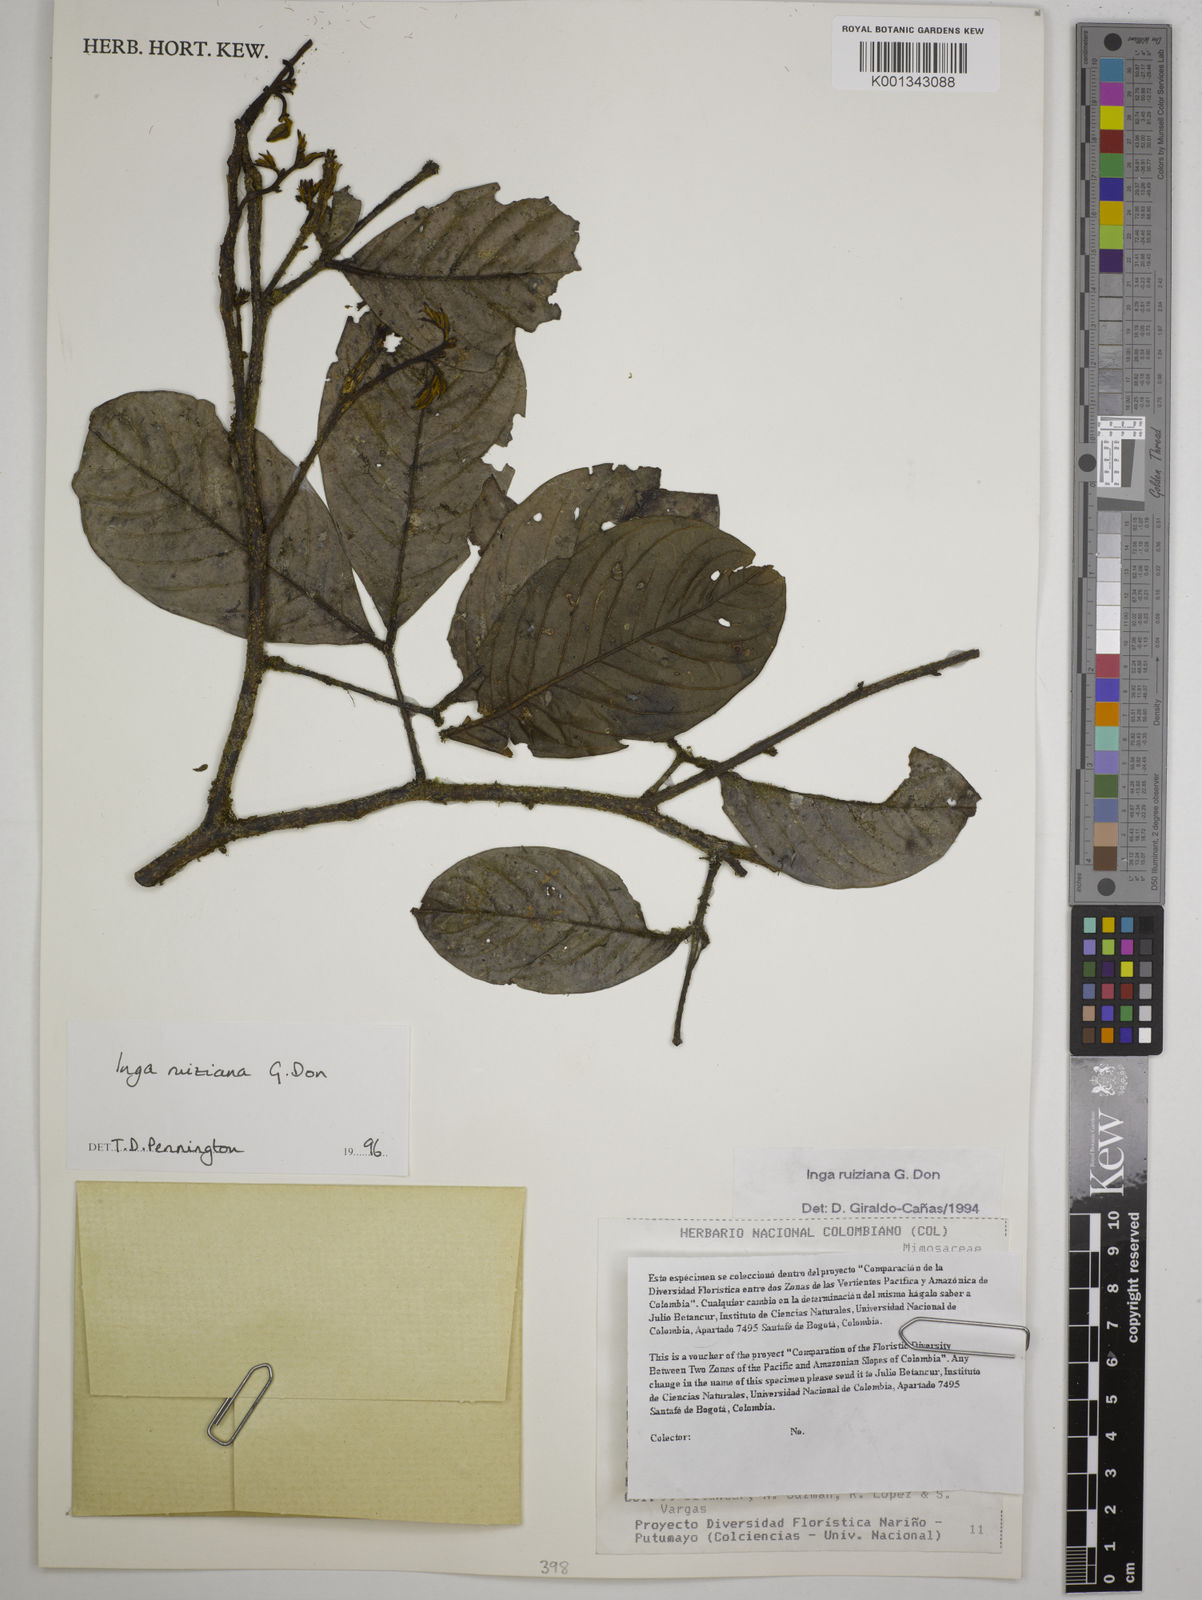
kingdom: Plantae
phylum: Tracheophyta
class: Magnoliopsida
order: Fabales
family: Fabaceae
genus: Inga
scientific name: Inga ruiziana
